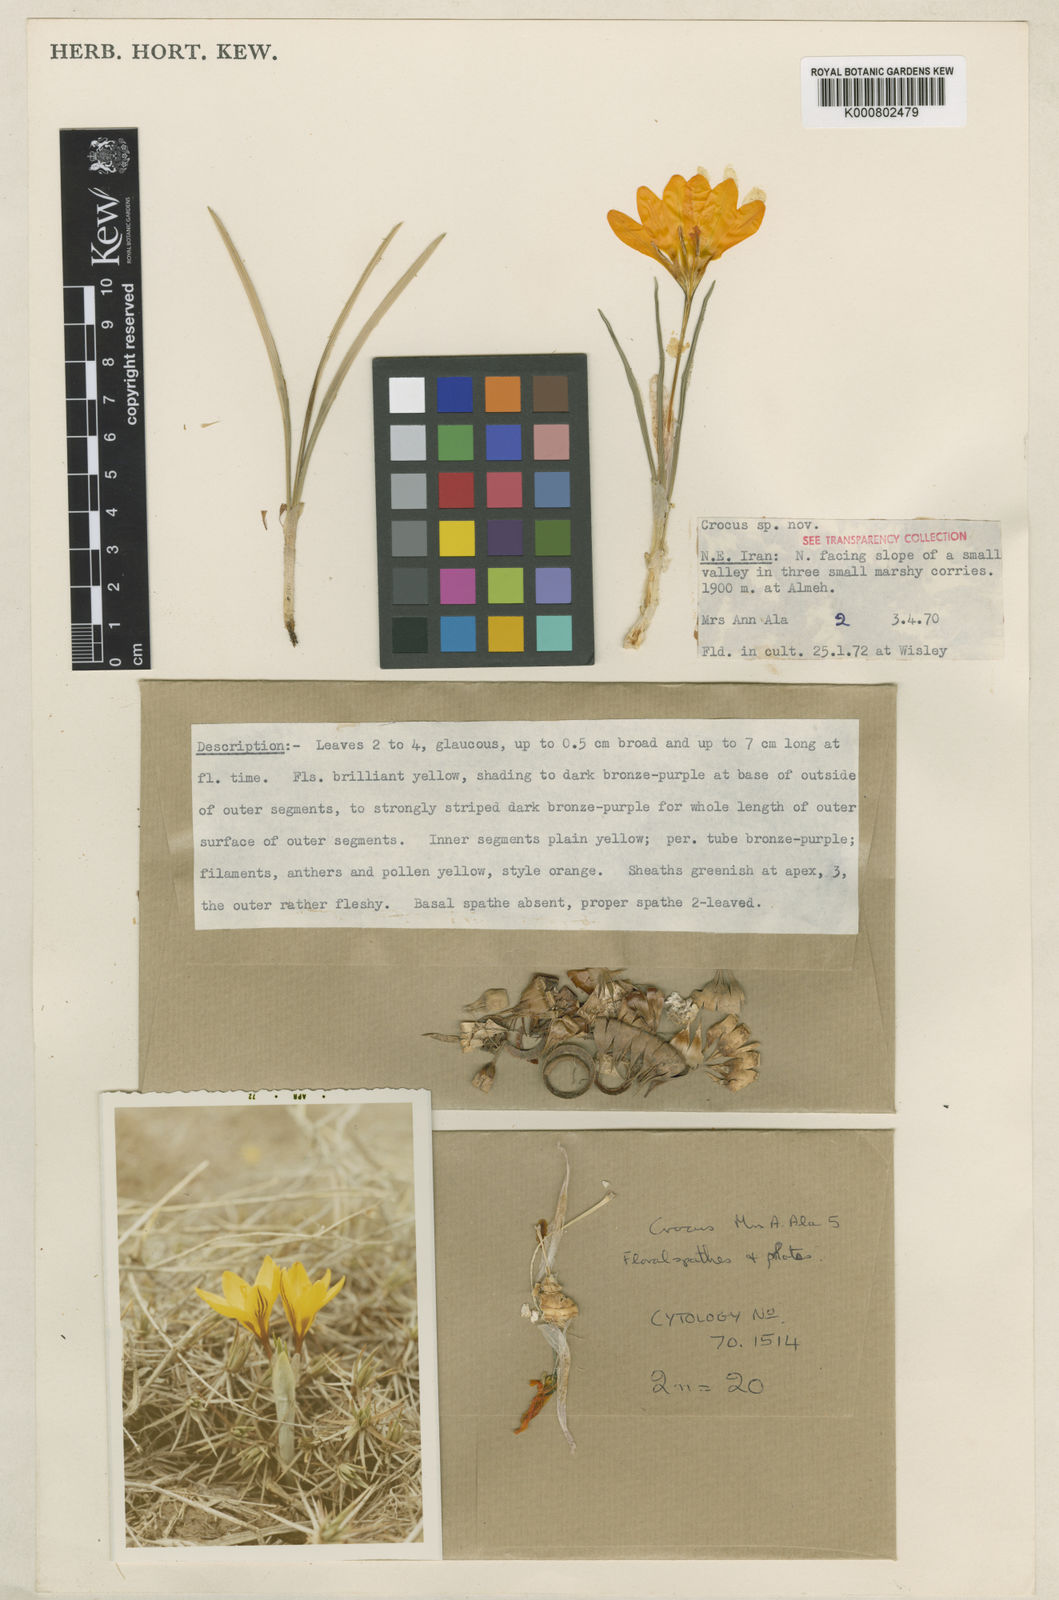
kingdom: Plantae
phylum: Tracheophyta
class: Liliopsida
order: Asparagales
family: Iridaceae
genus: Crocus
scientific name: Crocus almehensis
